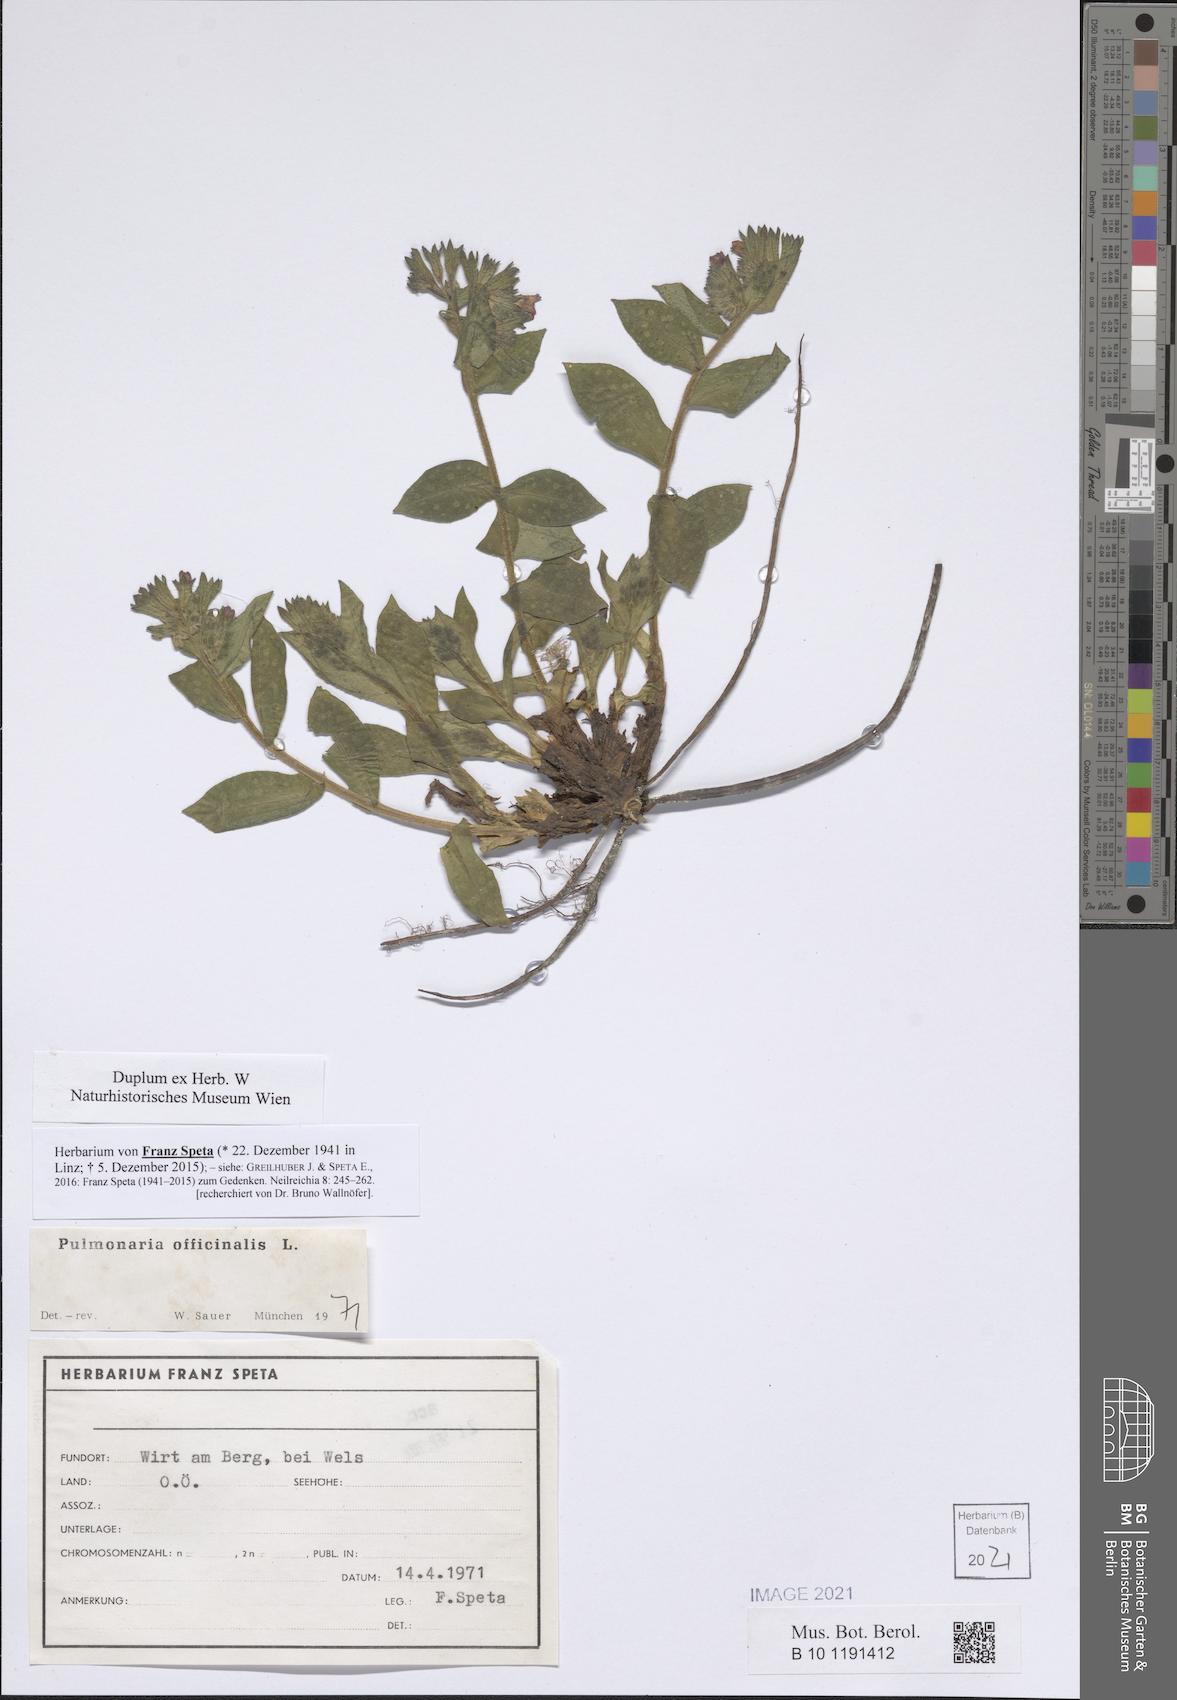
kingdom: Plantae
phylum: Tracheophyta
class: Magnoliopsida
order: Boraginales
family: Boraginaceae
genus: Pulmonaria
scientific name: Pulmonaria officinalis
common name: Lungwort
